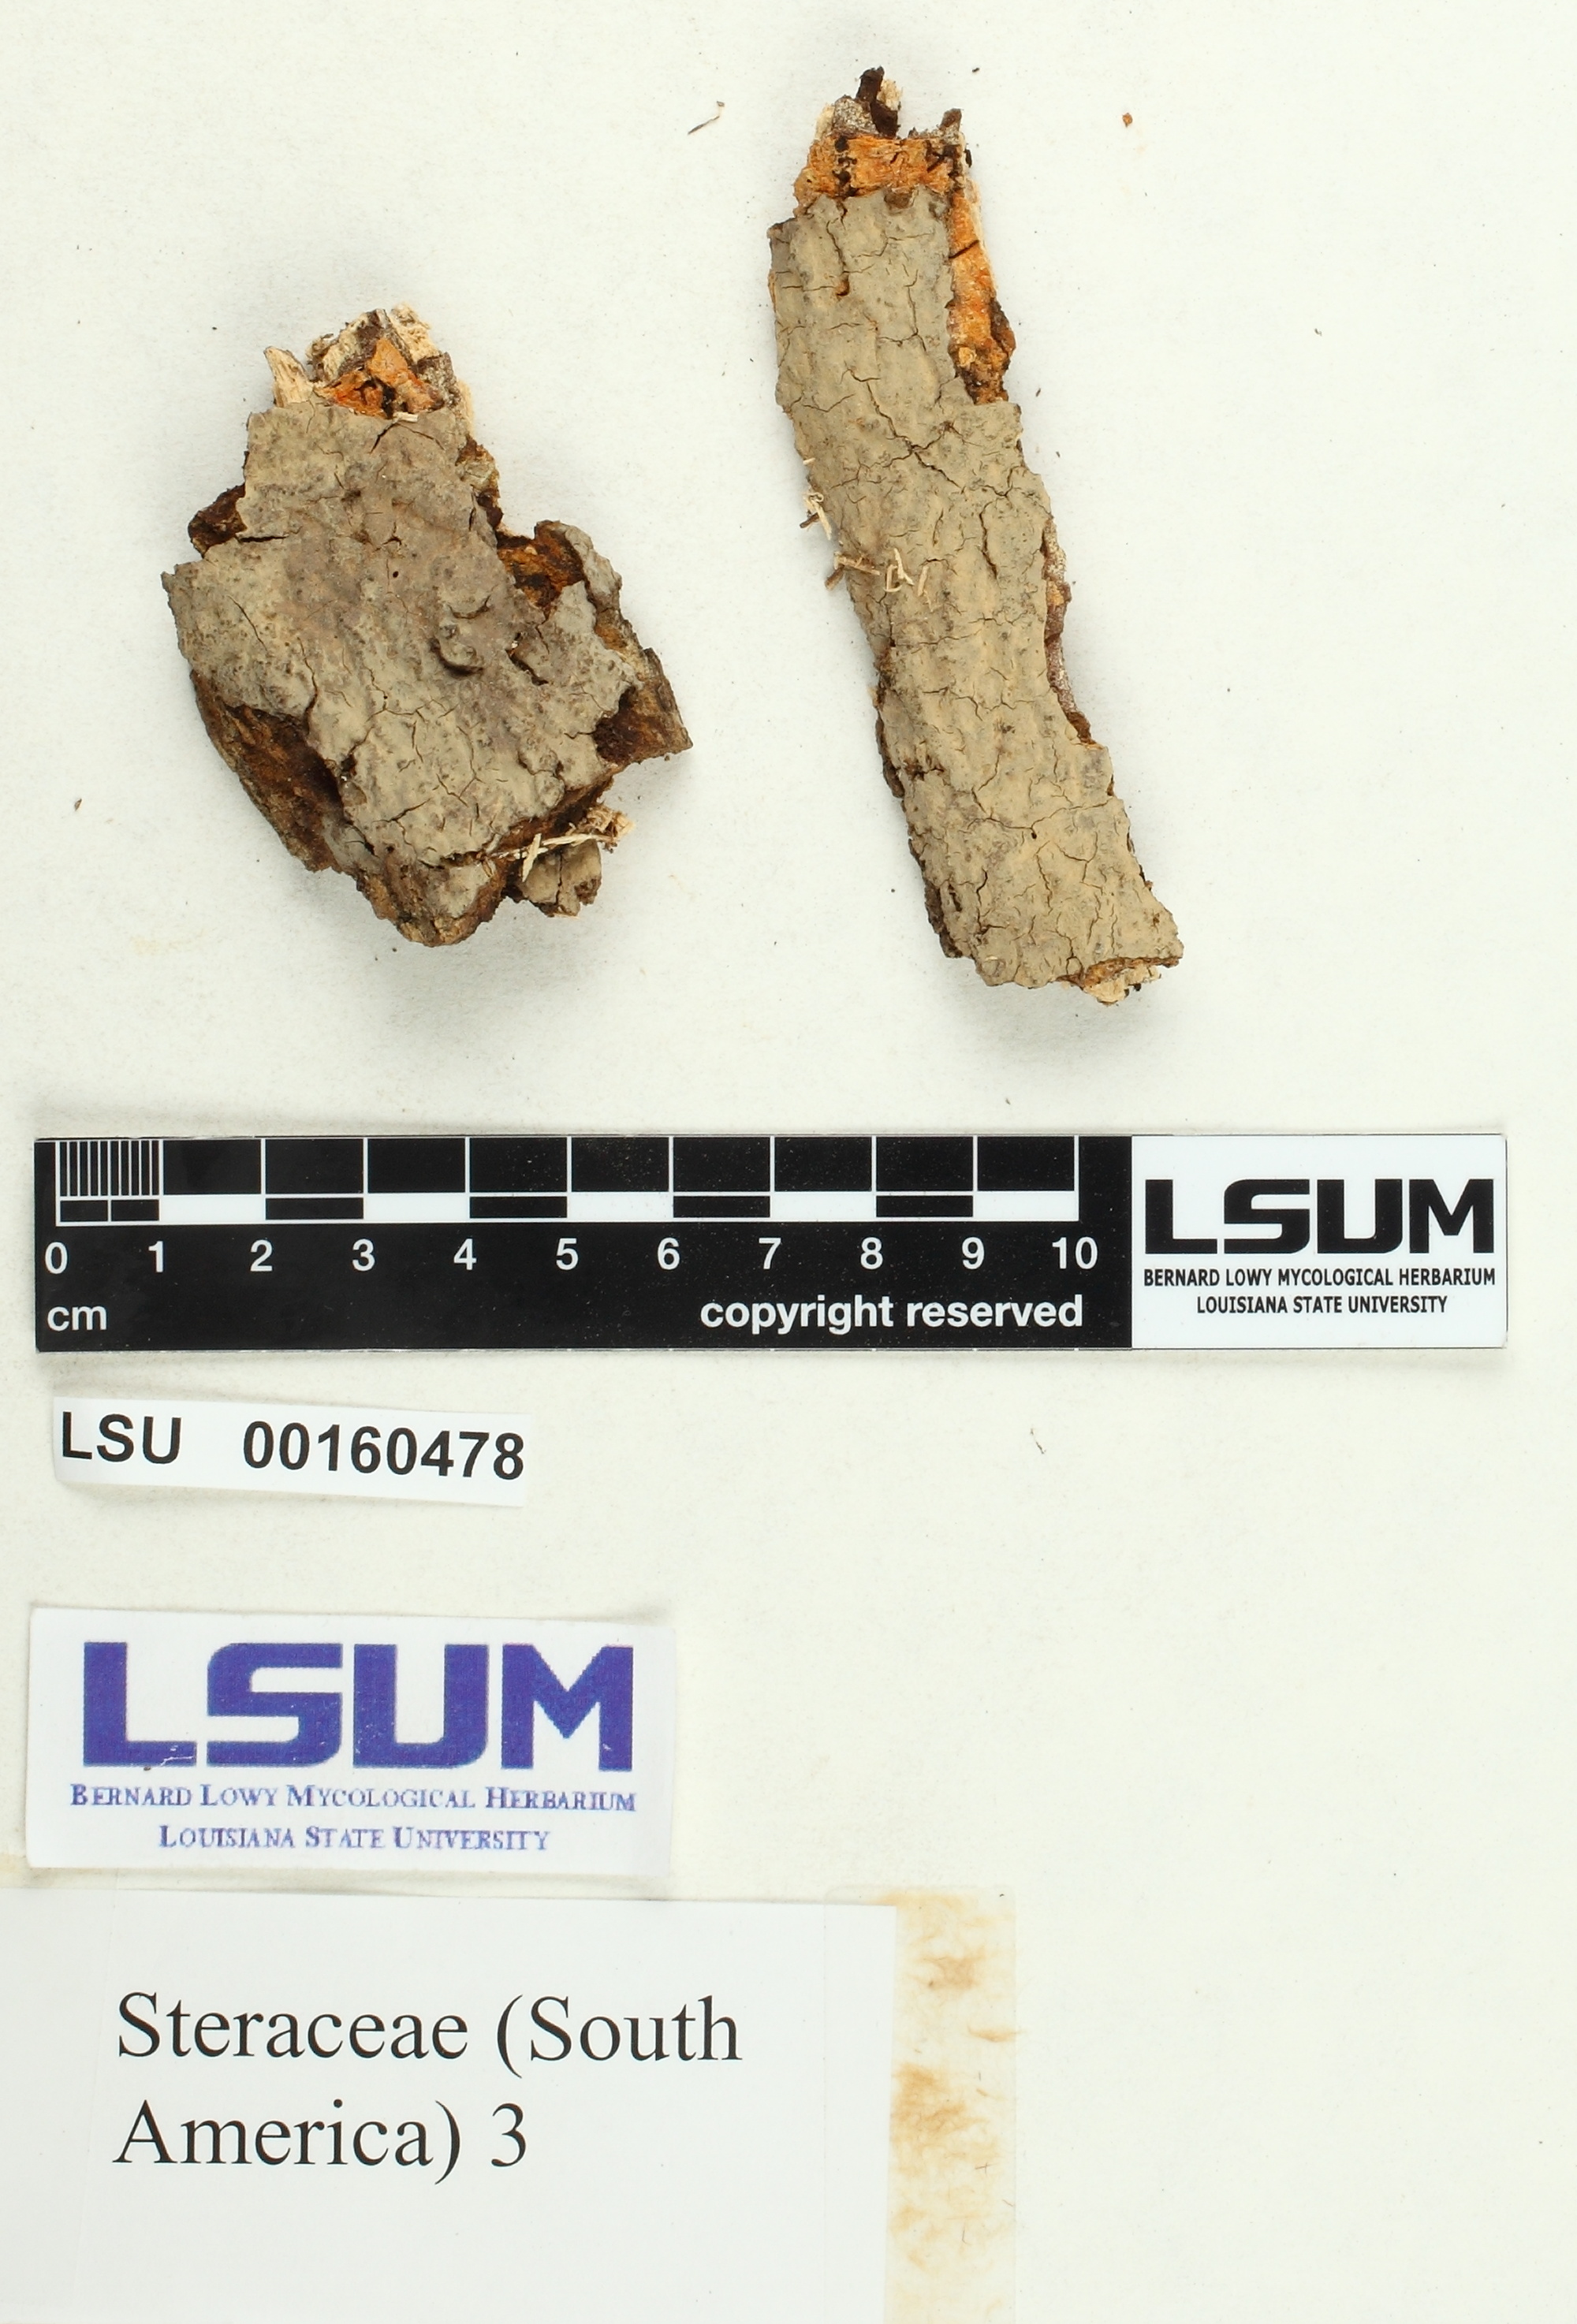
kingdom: Fungi
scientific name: Fungi
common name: Fungi
